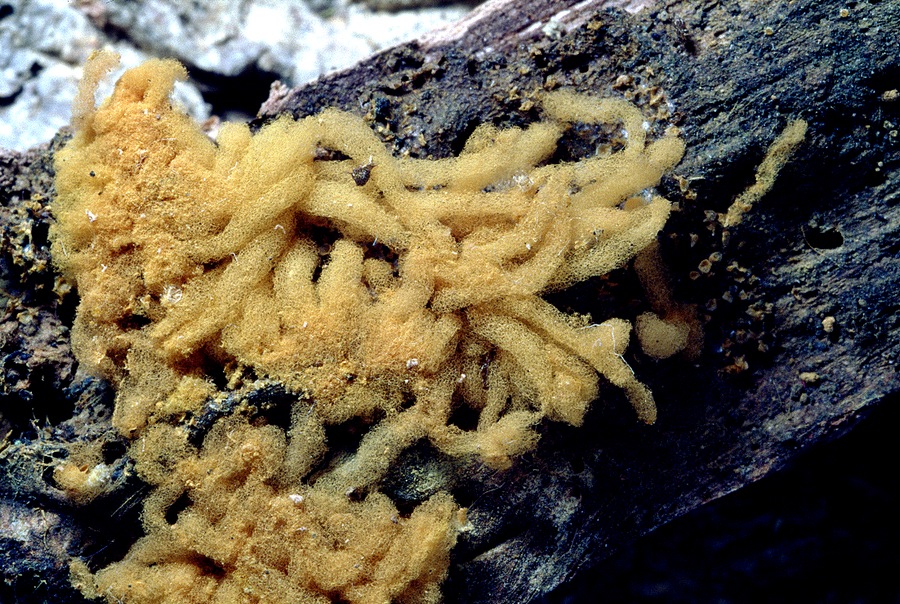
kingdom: Protozoa
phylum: Mycetozoa
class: Myxomycetes
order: Trichiales
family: Arcyriaceae
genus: Arcyria
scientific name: Arcyria obvelata
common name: okkergul skålsvøb
